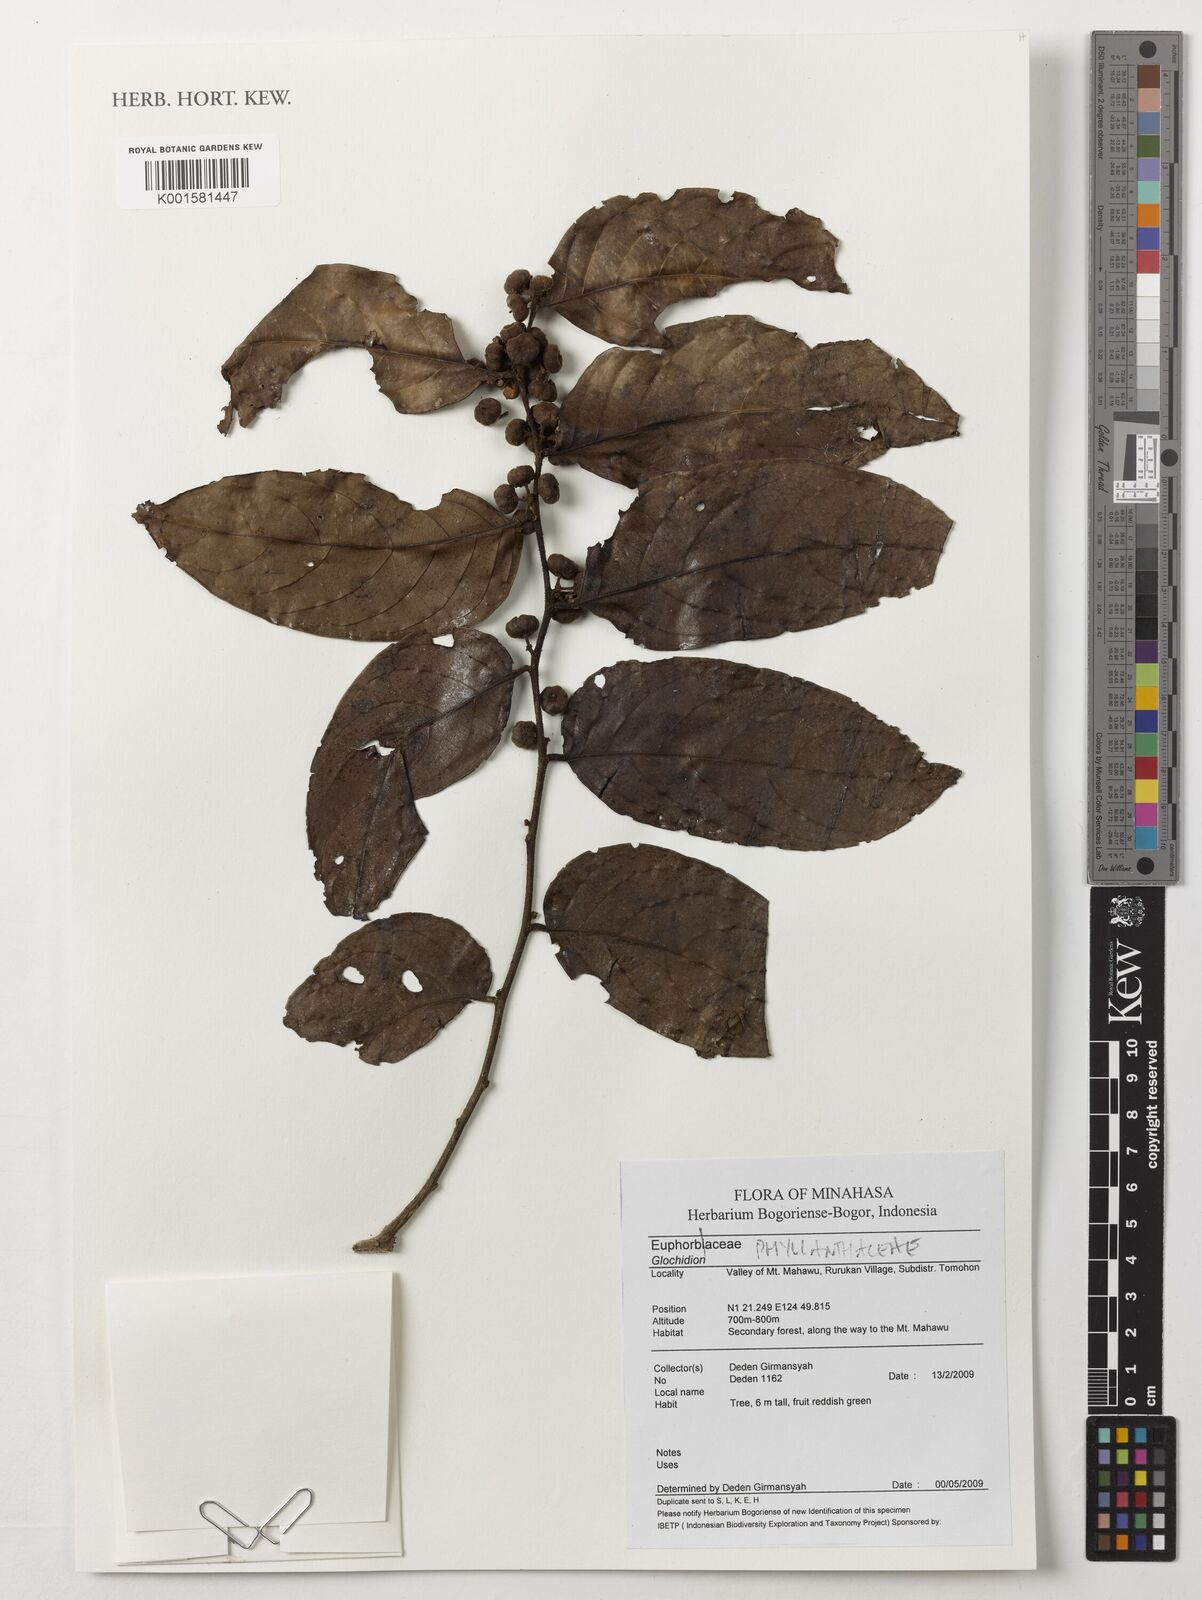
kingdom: Plantae
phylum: Tracheophyta
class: Magnoliopsida
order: Malpighiales
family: Phyllanthaceae
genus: Glochidion
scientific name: Glochidion
